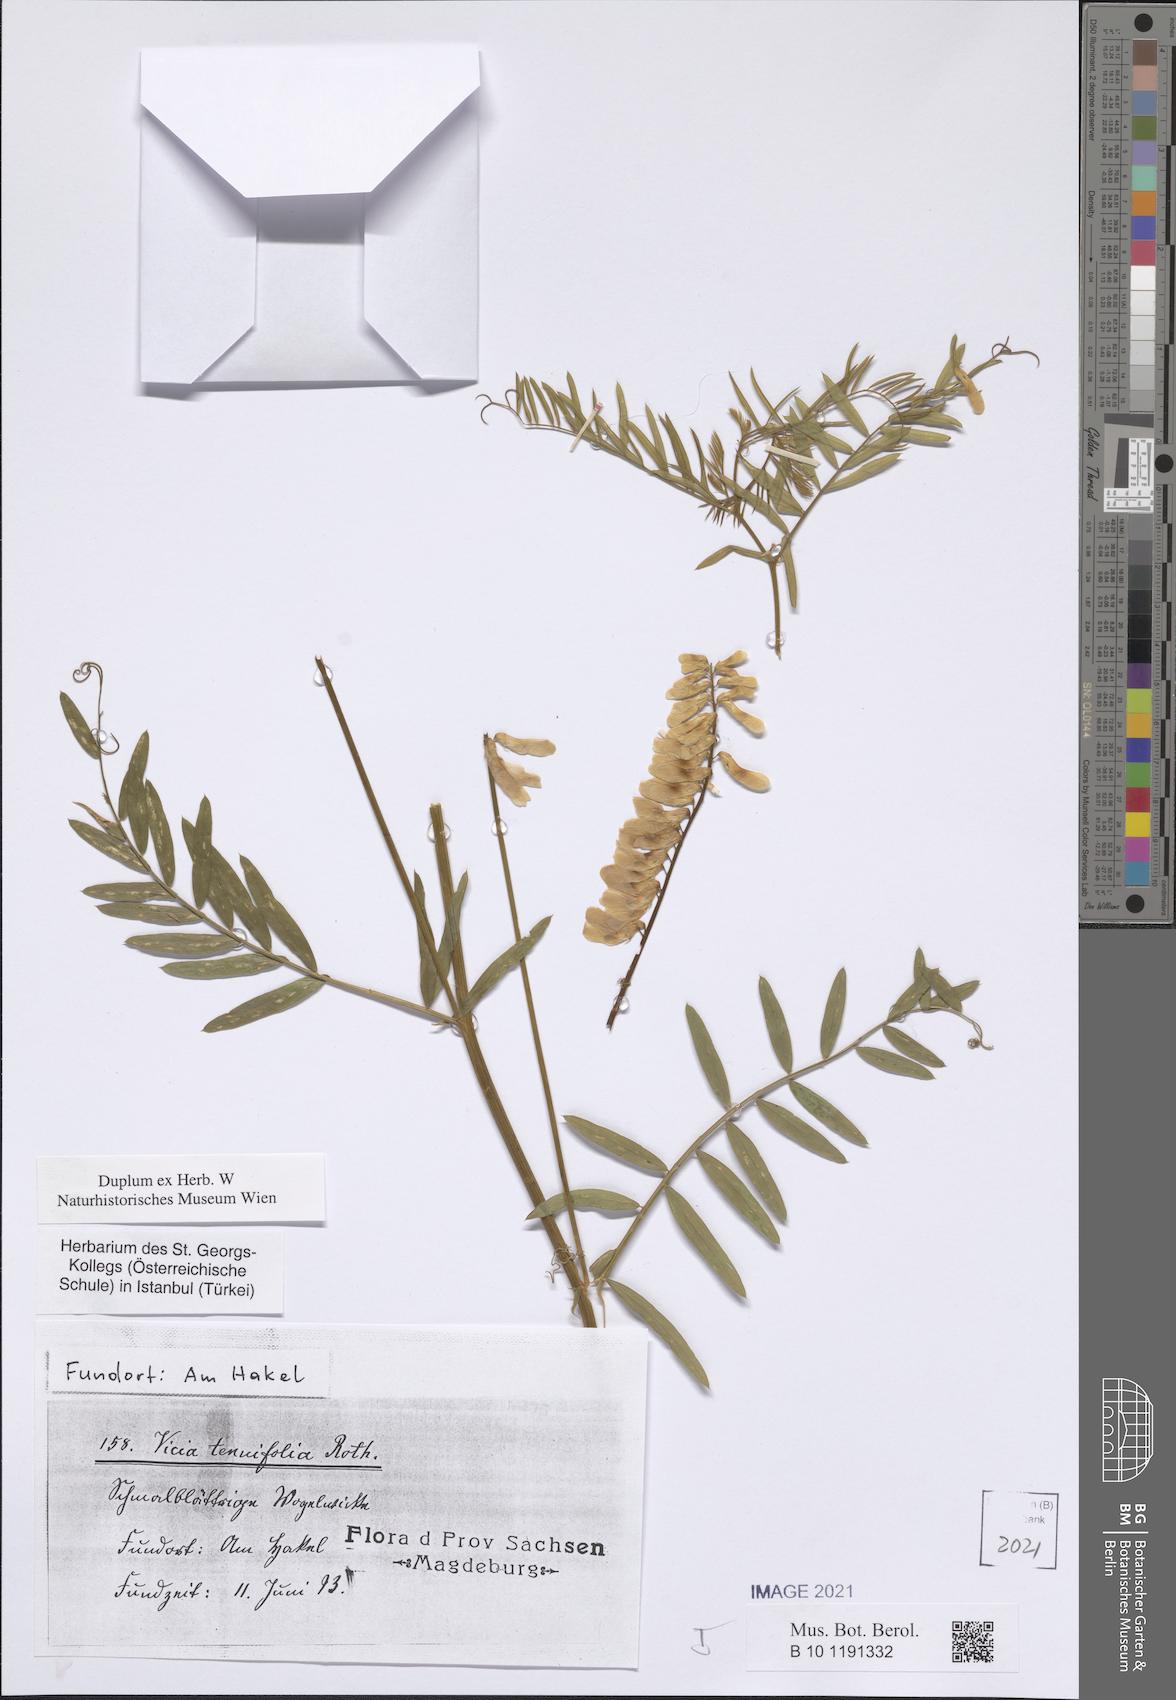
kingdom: Plantae
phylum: Tracheophyta
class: Magnoliopsida
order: Fabales
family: Fabaceae
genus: Vicia
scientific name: Vicia tenuifolia
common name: Fine-leaved vetch
